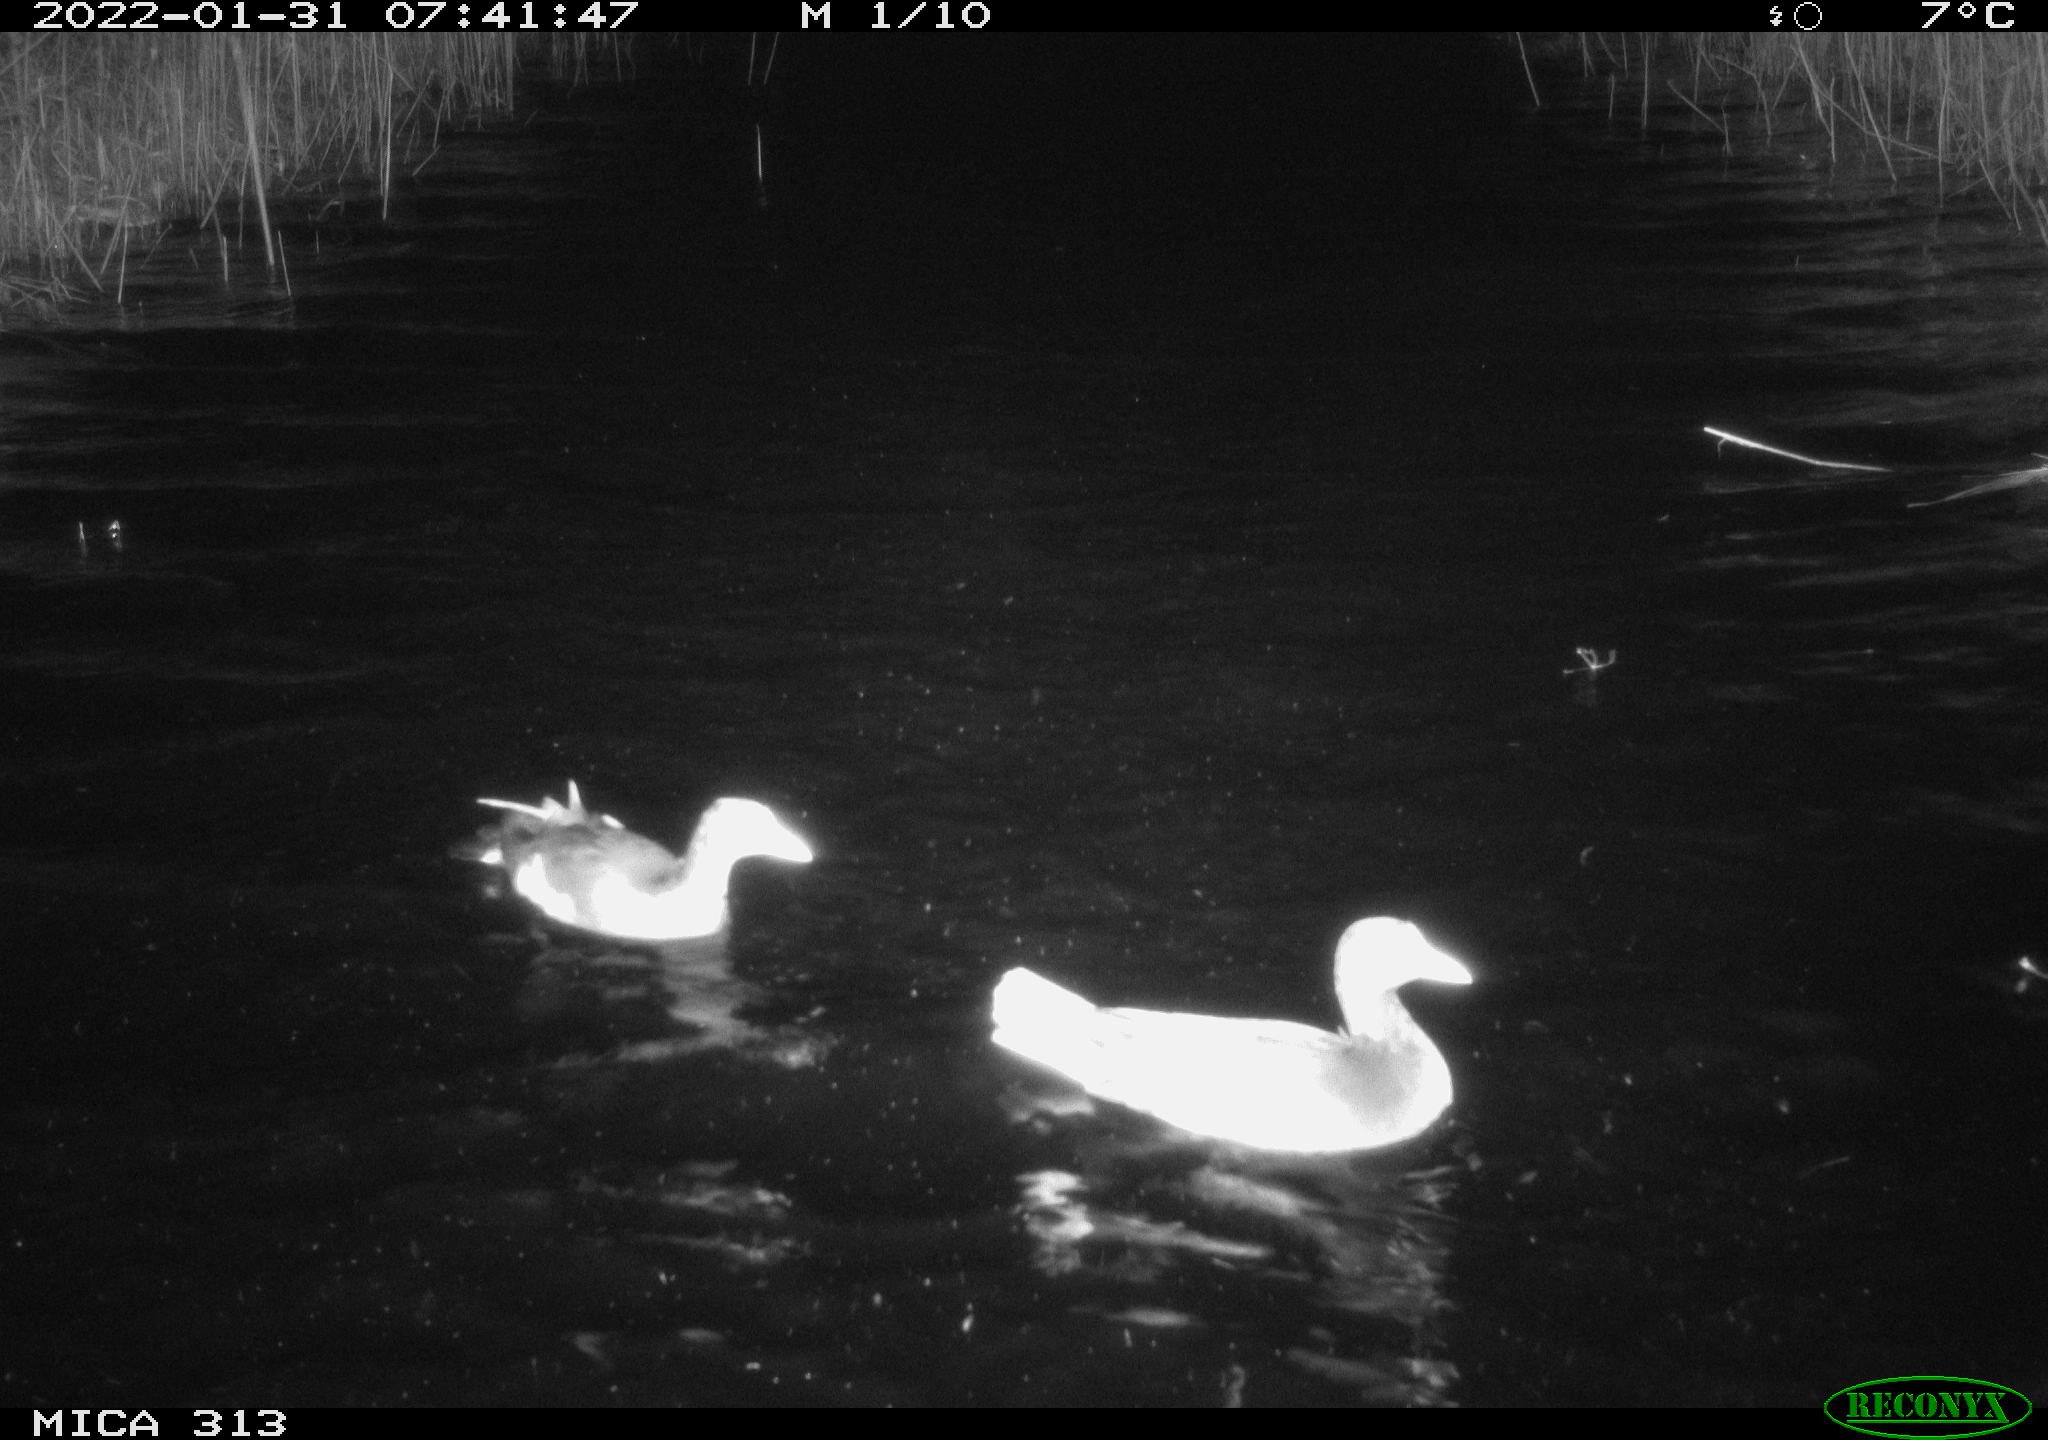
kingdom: Animalia
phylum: Chordata
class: Aves
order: Gruiformes
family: Rallidae
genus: Gallinula
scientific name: Gallinula chloropus
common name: Common moorhen
